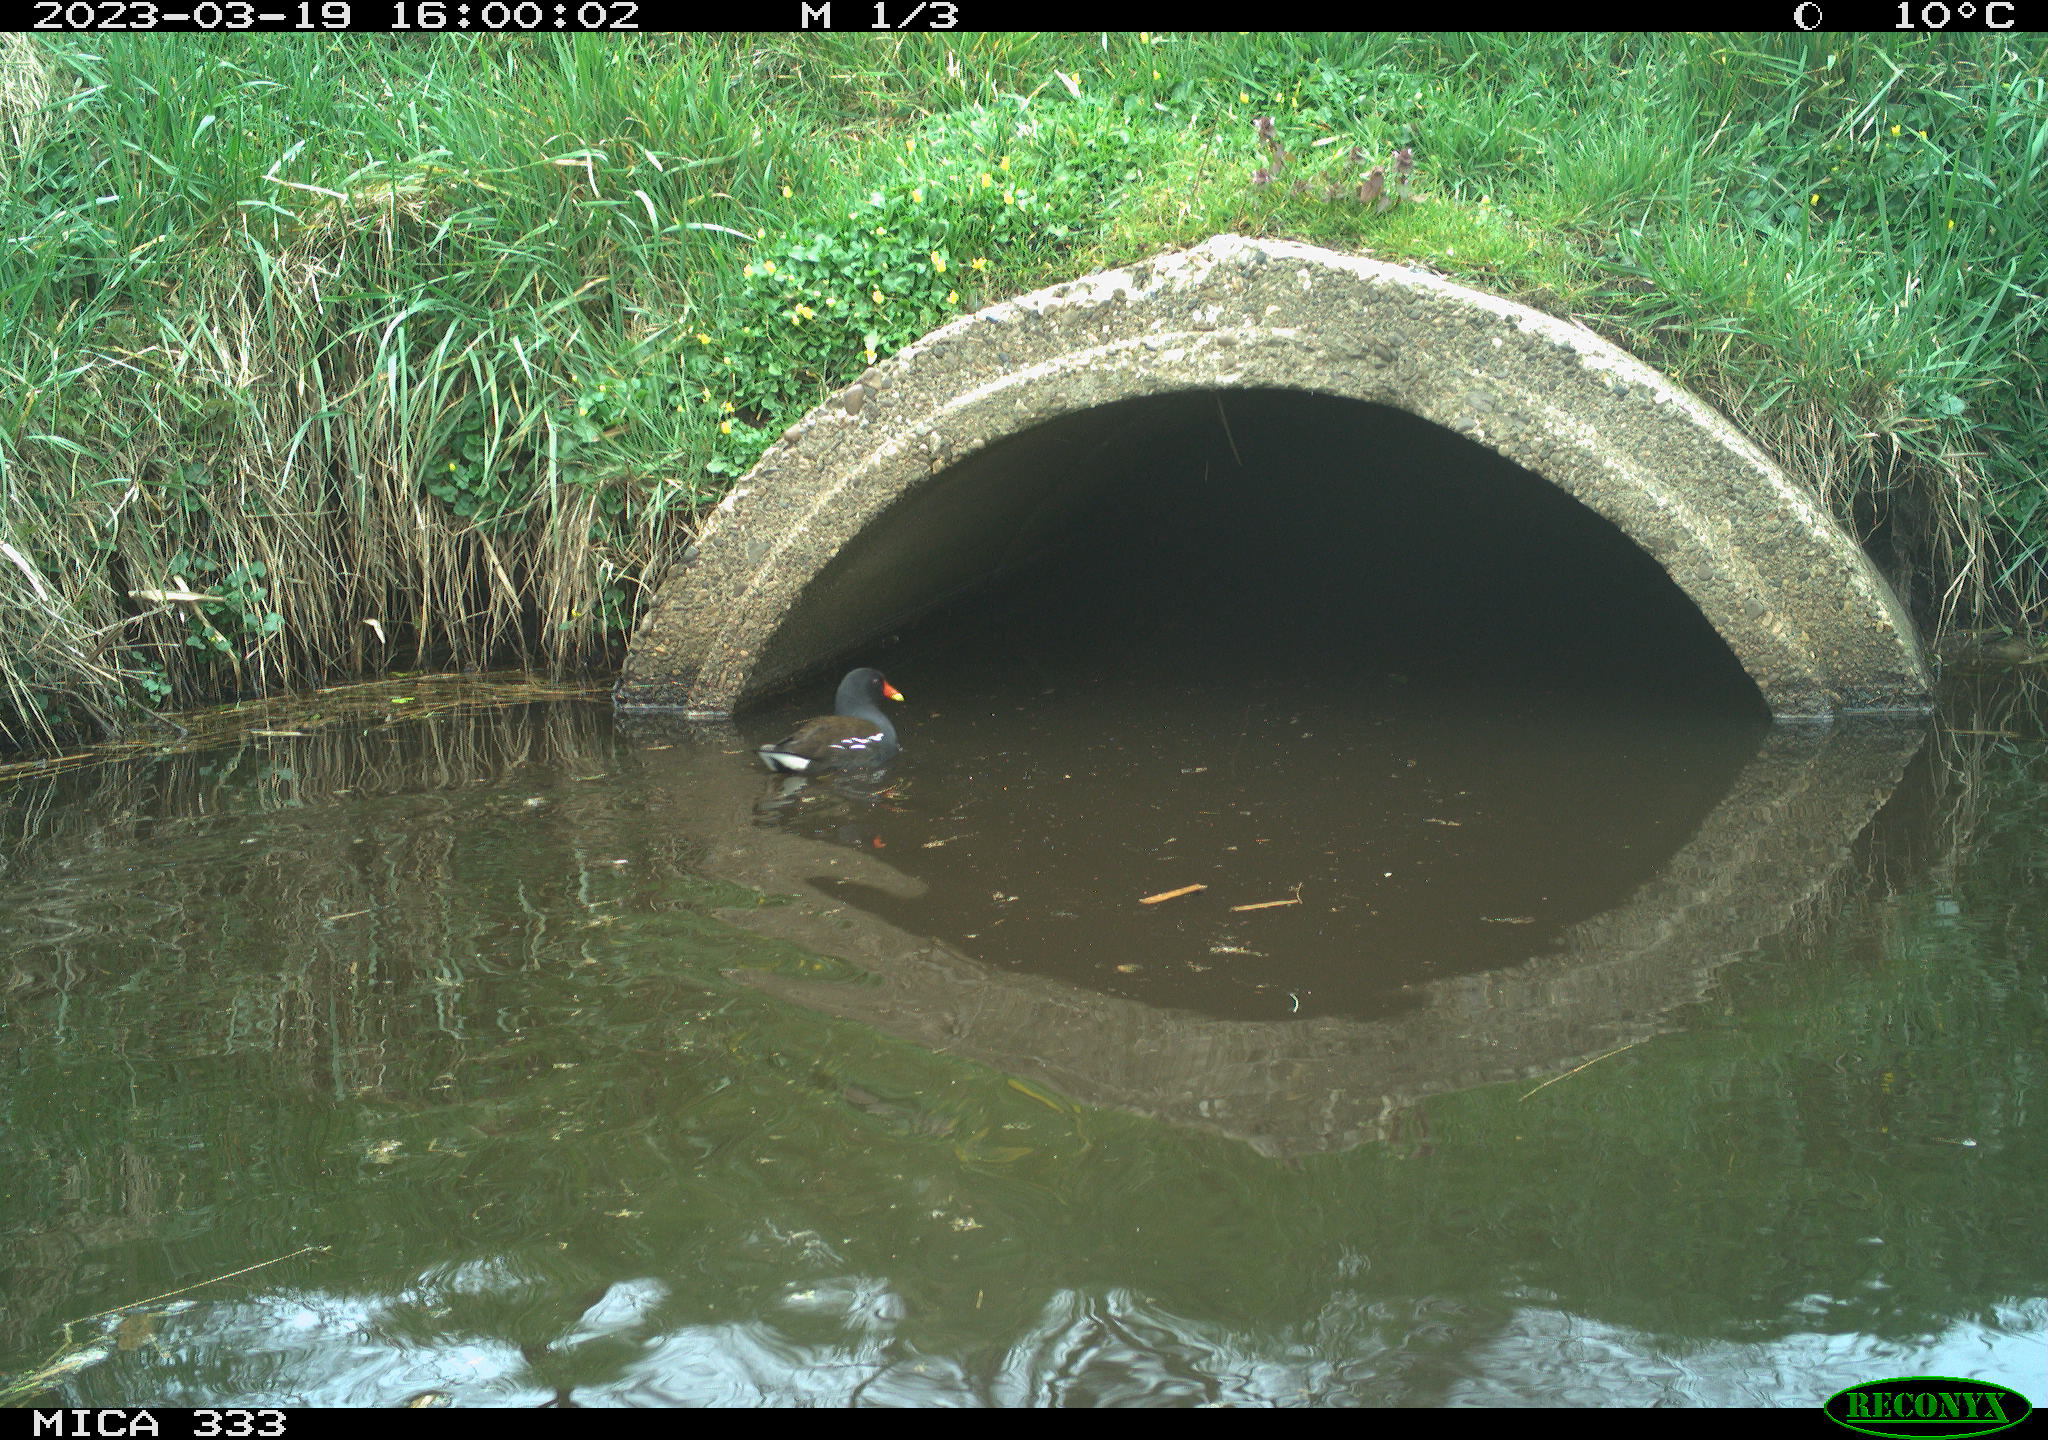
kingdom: Animalia
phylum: Chordata
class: Aves
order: Gruiformes
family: Rallidae
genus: Gallinula
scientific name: Gallinula chloropus
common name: Common moorhen
